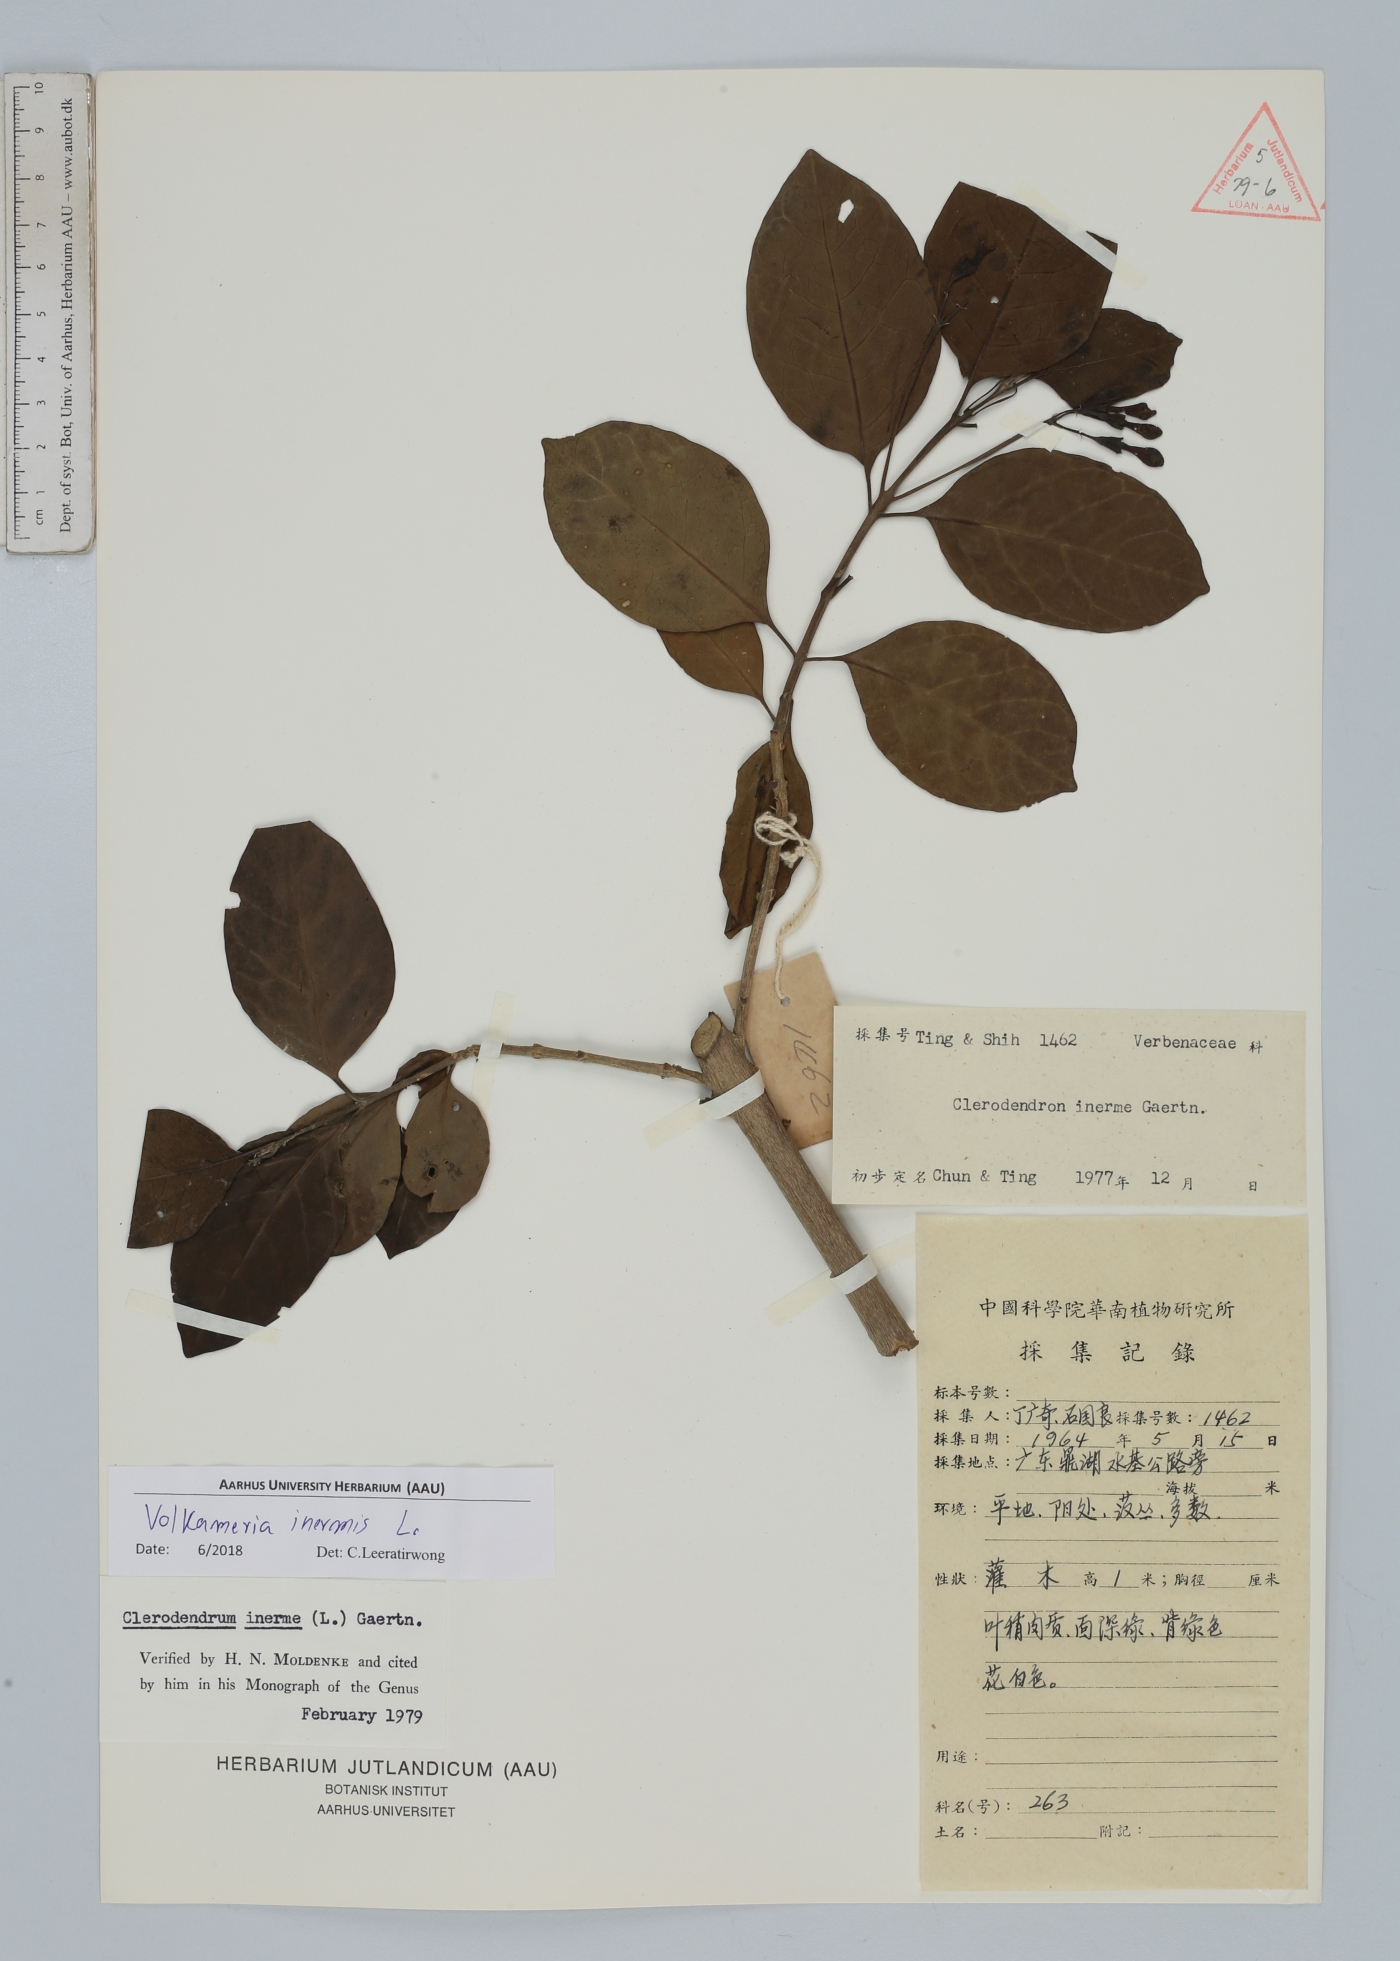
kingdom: Plantae
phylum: Tracheophyta
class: Magnoliopsida
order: Lamiales
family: Lamiaceae
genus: Volkameria
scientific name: Volkameria inermis
